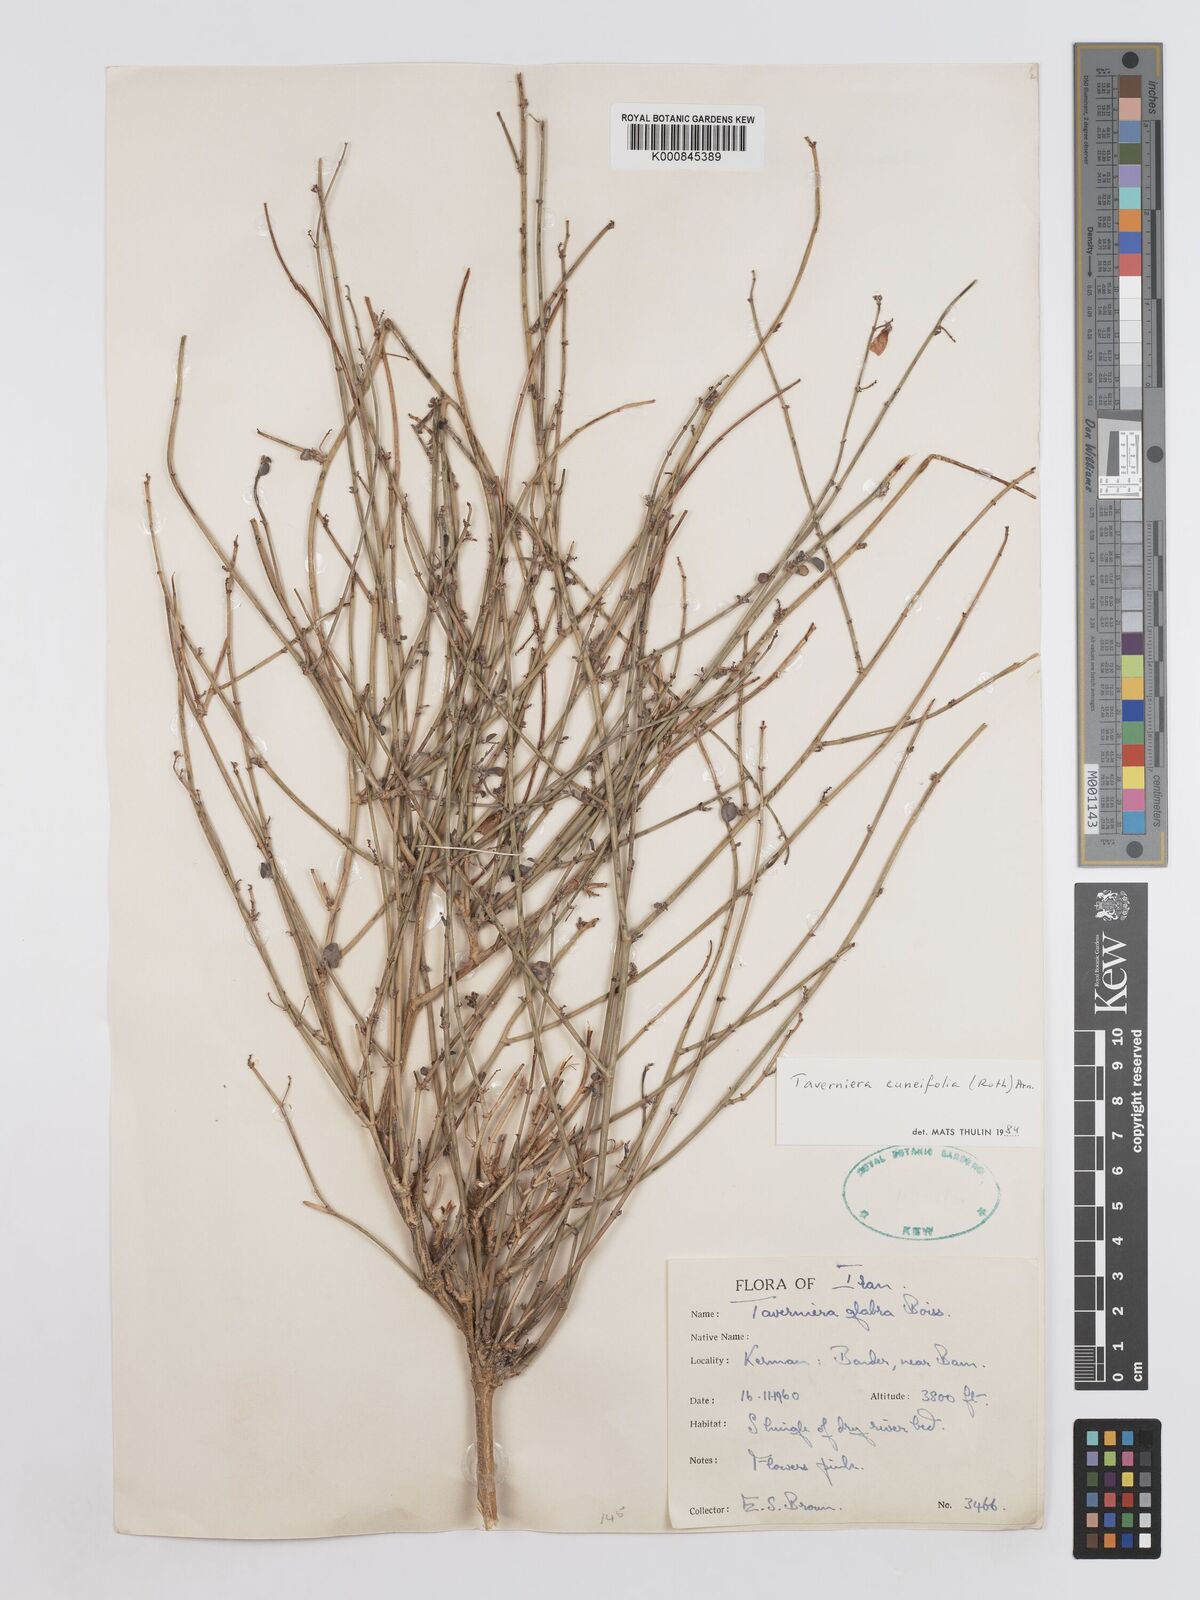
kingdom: Plantae
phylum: Tracheophyta
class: Magnoliopsida
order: Fabales
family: Fabaceae
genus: Taverniera
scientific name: Taverniera
